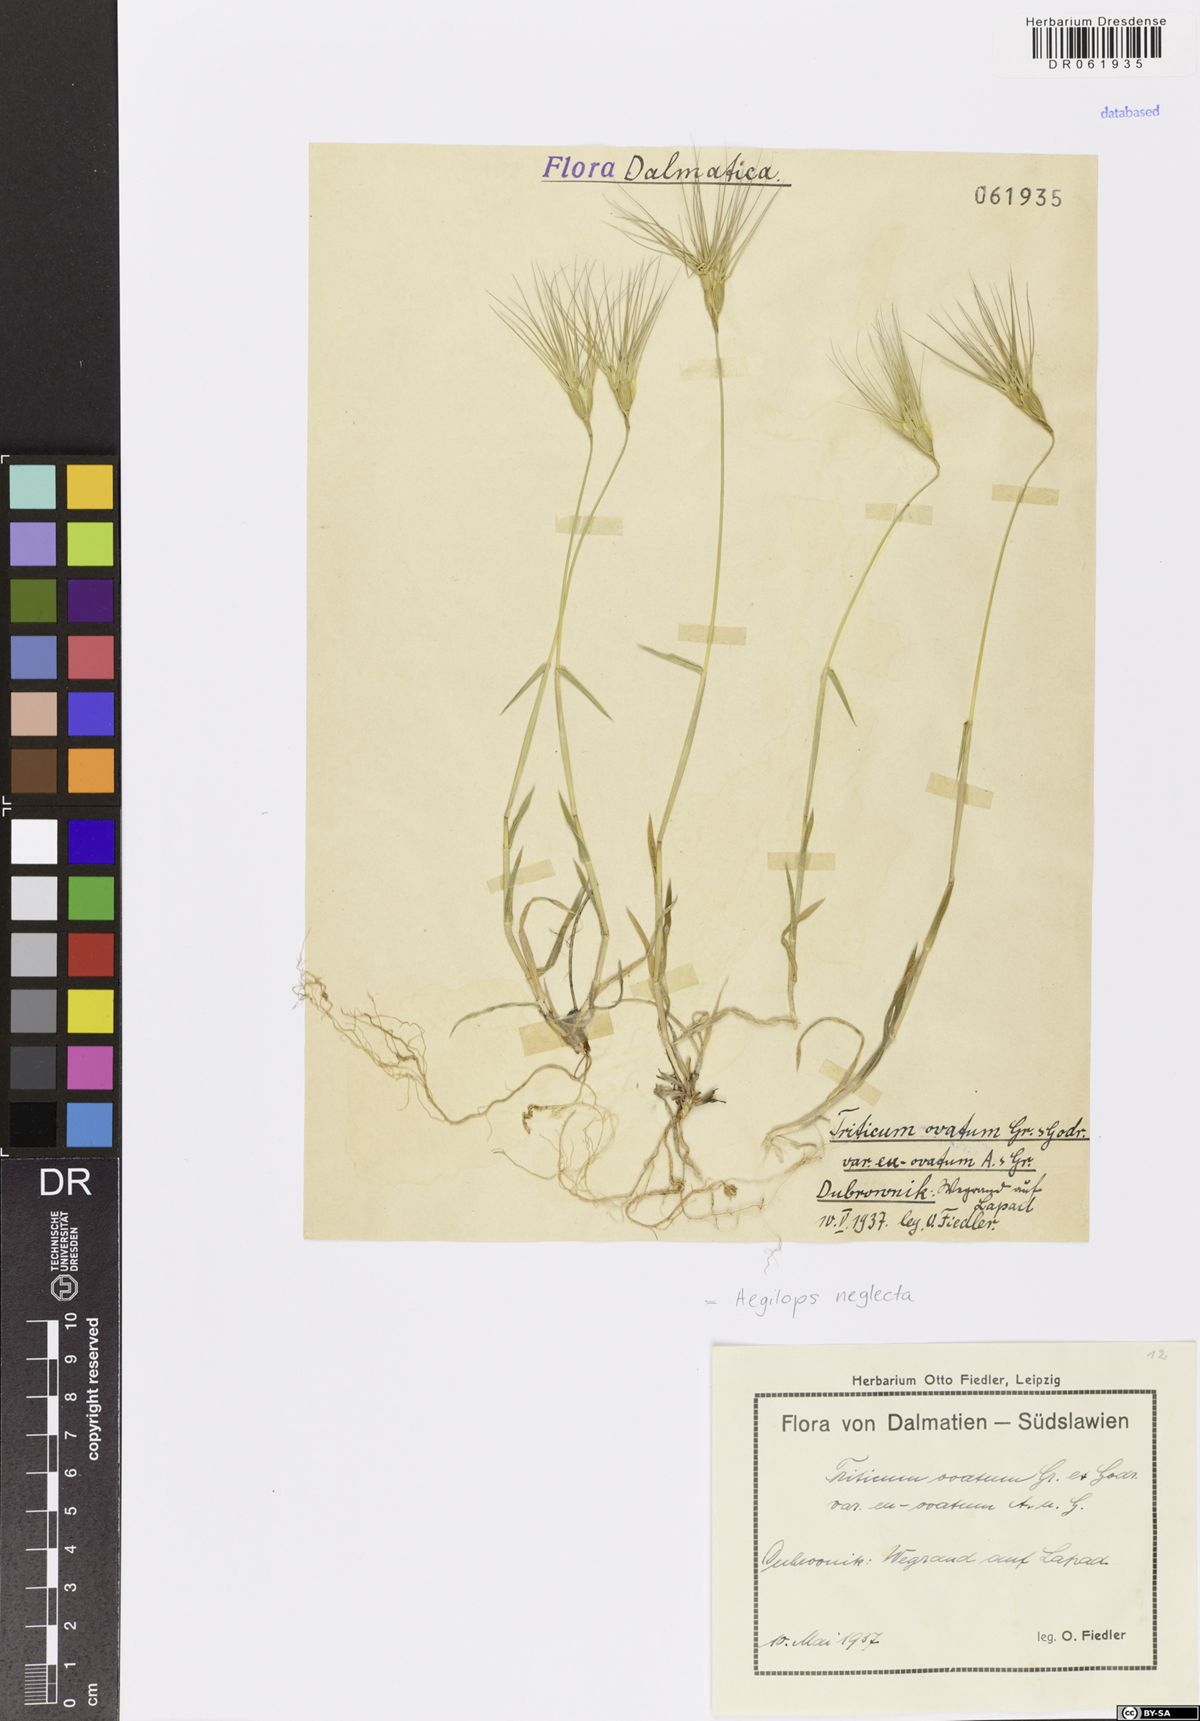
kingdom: Plantae
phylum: Tracheophyta
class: Liliopsida
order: Poales
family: Poaceae
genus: Aegilops
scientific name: Aegilops neglecta
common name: Three-awn goat grass
